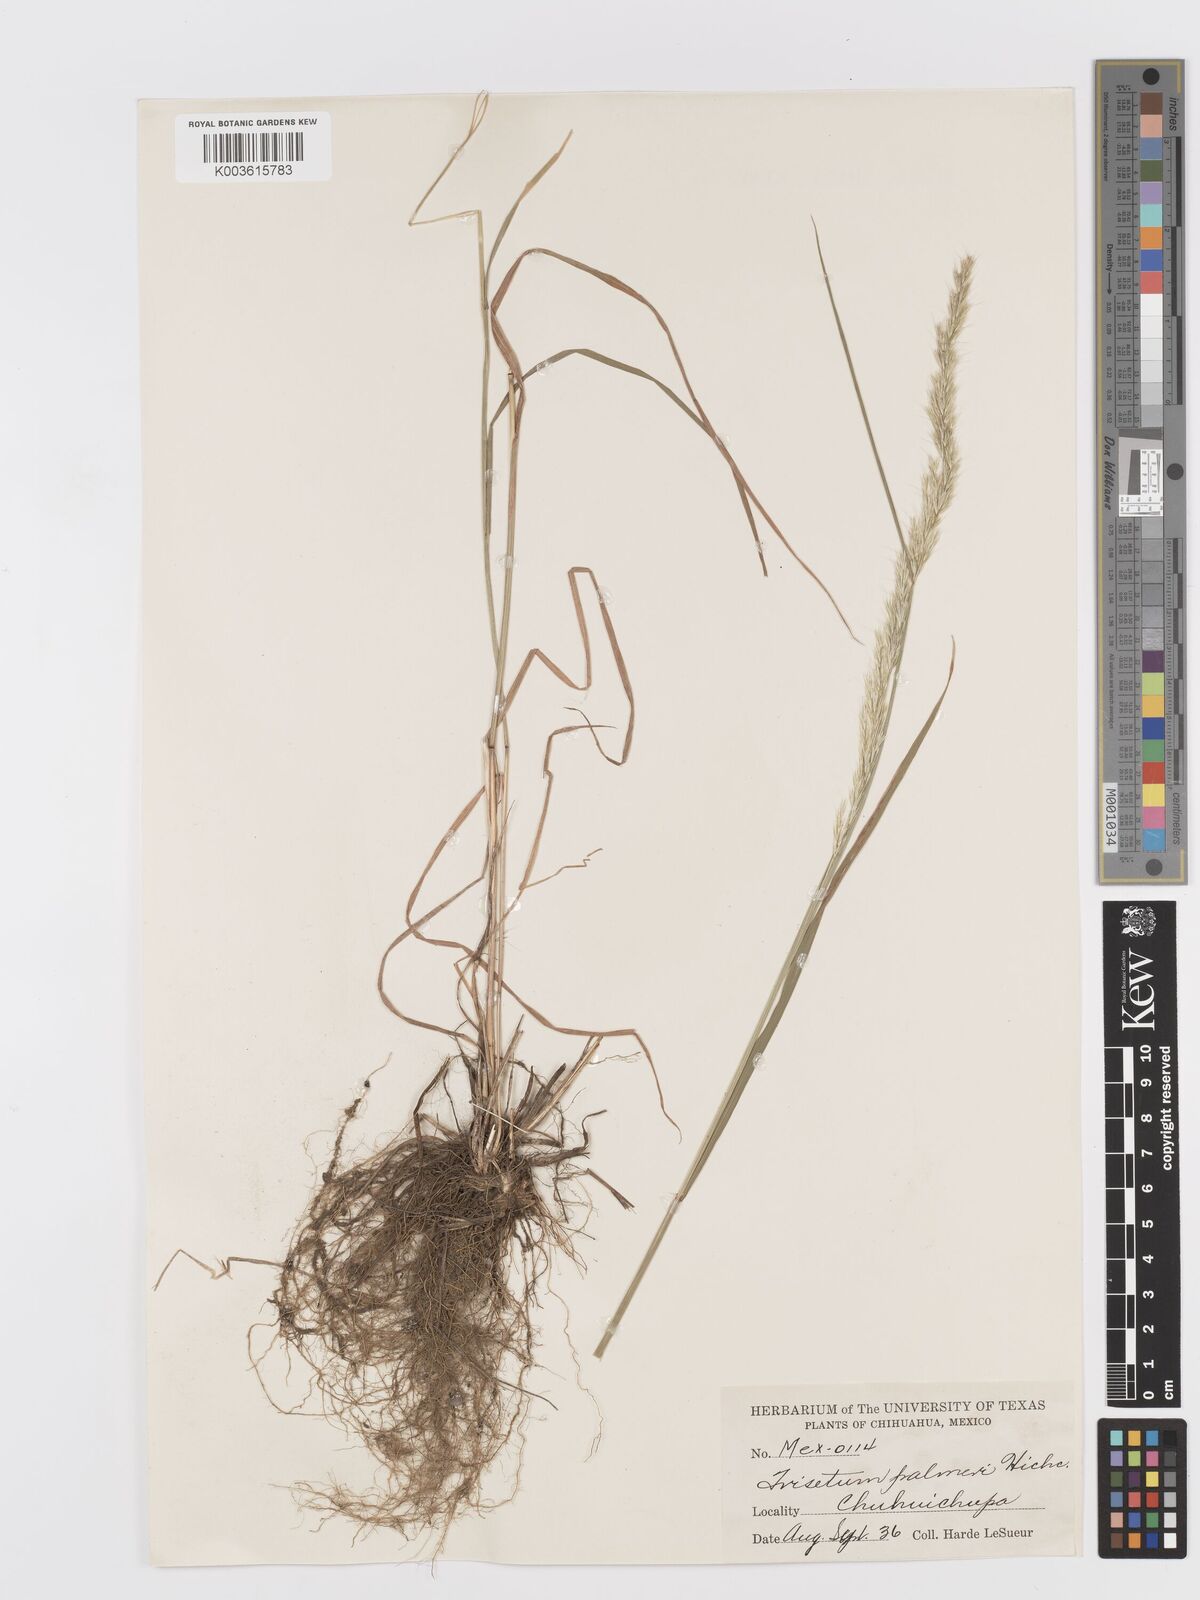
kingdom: Plantae
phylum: Tracheophyta
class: Liliopsida
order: Poales
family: Poaceae
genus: Peyritschia
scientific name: Peyritschia palmeri
